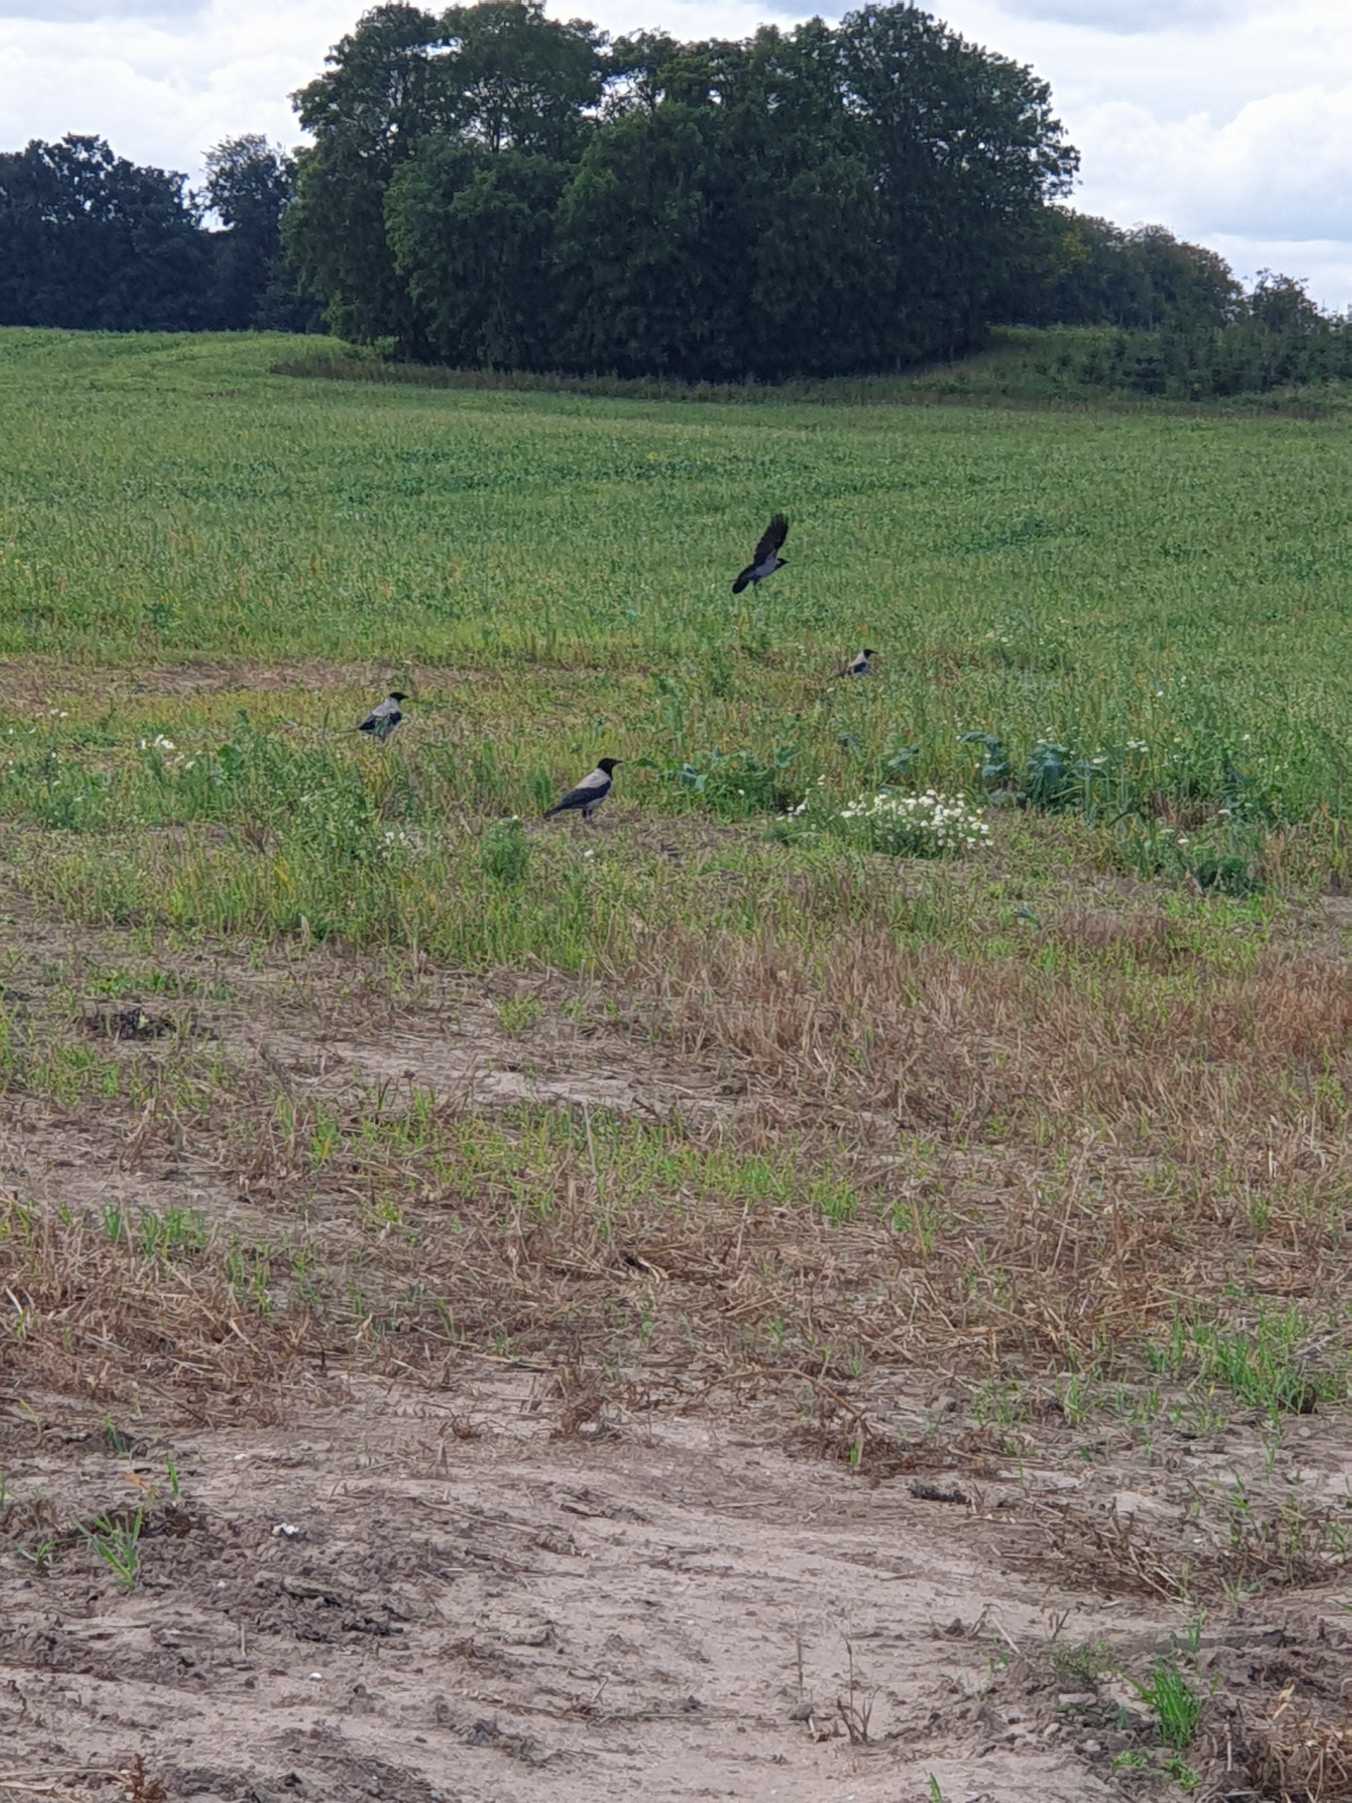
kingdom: Animalia
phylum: Chordata
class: Aves
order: Passeriformes
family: Corvidae
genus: Corvus
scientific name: Corvus cornix
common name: Gråkrage
